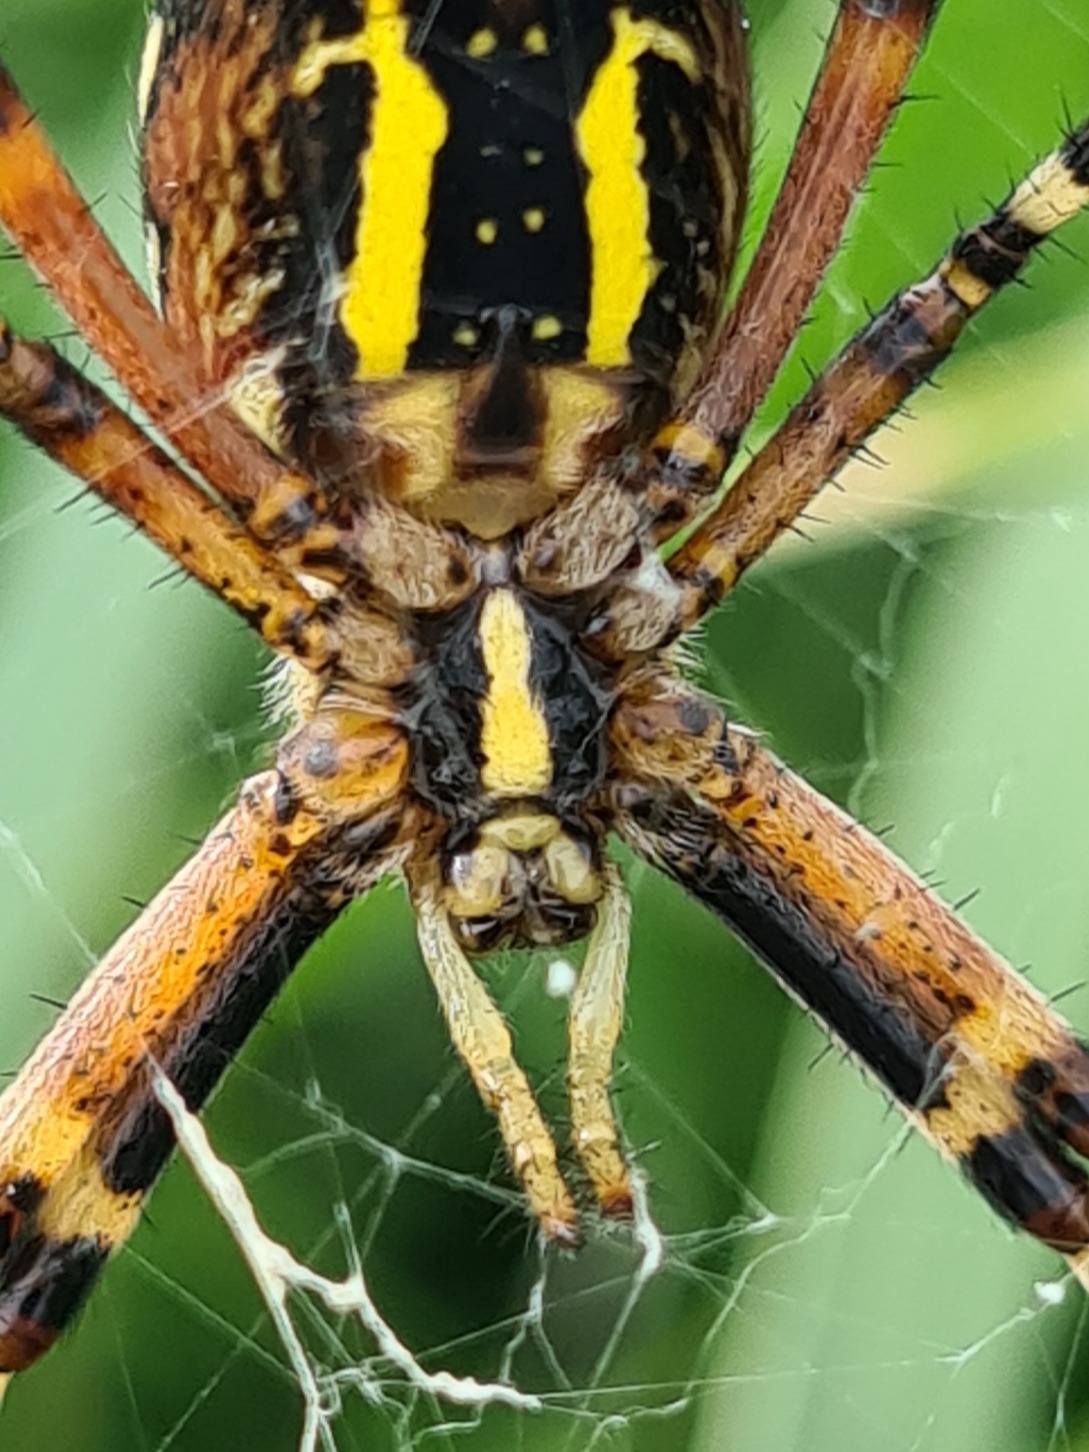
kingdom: Animalia
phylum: Arthropoda
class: Arachnida
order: Araneae
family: Araneidae
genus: Argiope
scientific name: Argiope bruennichi
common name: Hvepseedderkop
